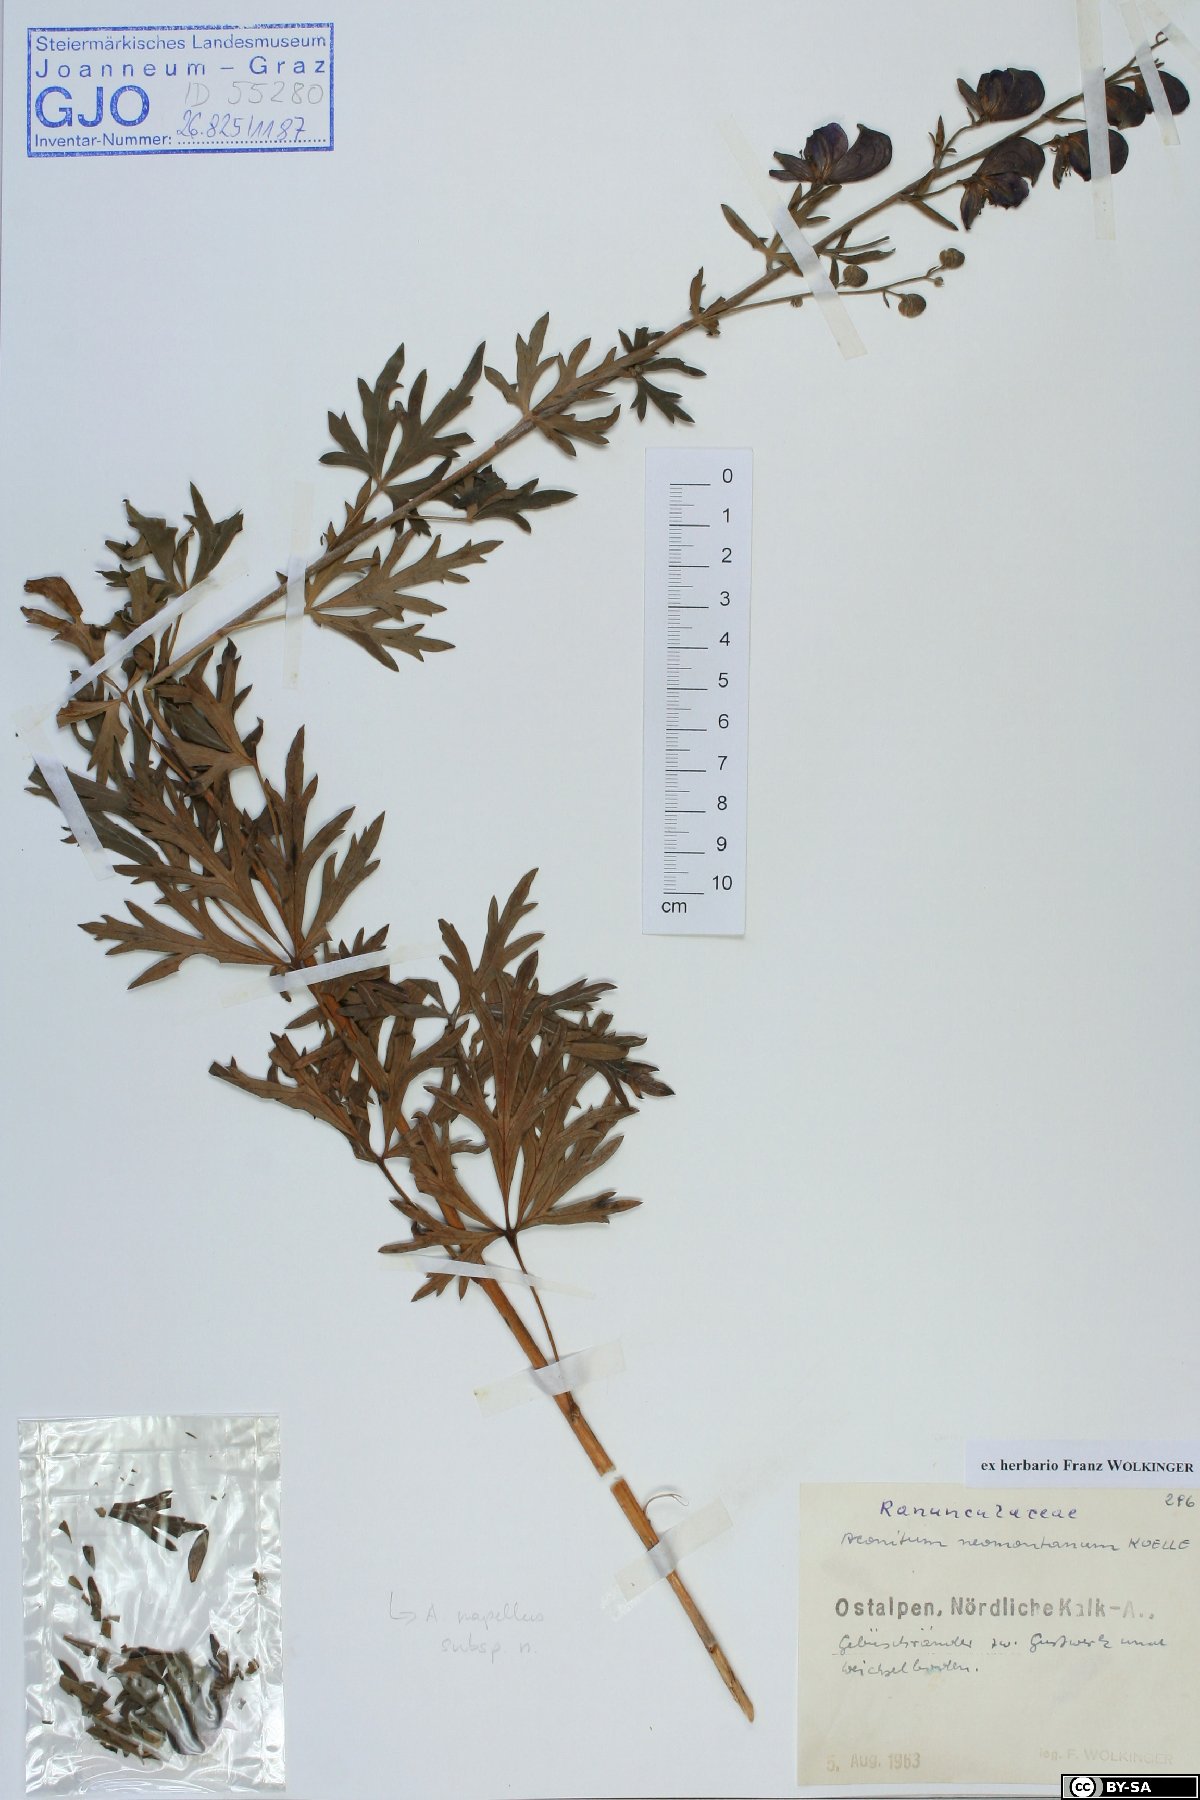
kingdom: Plantae
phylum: Tracheophyta
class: Magnoliopsida
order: Ranunculales
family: Ranunculaceae
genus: Aconitum
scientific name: Aconitum napellus
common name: Garden monkshood
